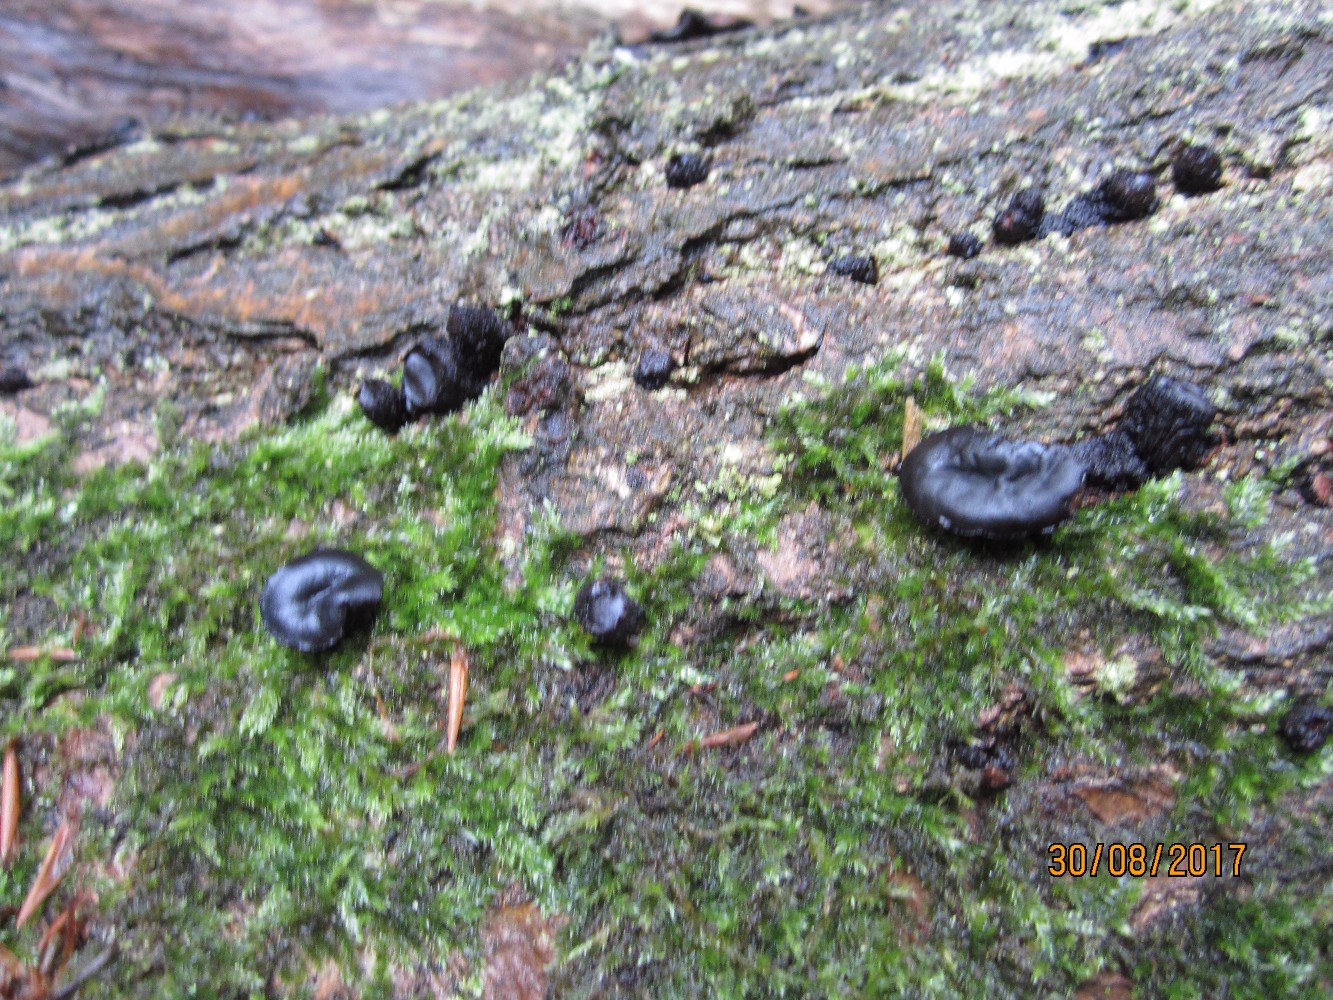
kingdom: Fungi
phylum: Ascomycota
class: Leotiomycetes
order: Phacidiales
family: Phacidiaceae
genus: Bulgaria
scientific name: Bulgaria inquinans
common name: afsmittende topsvamp
